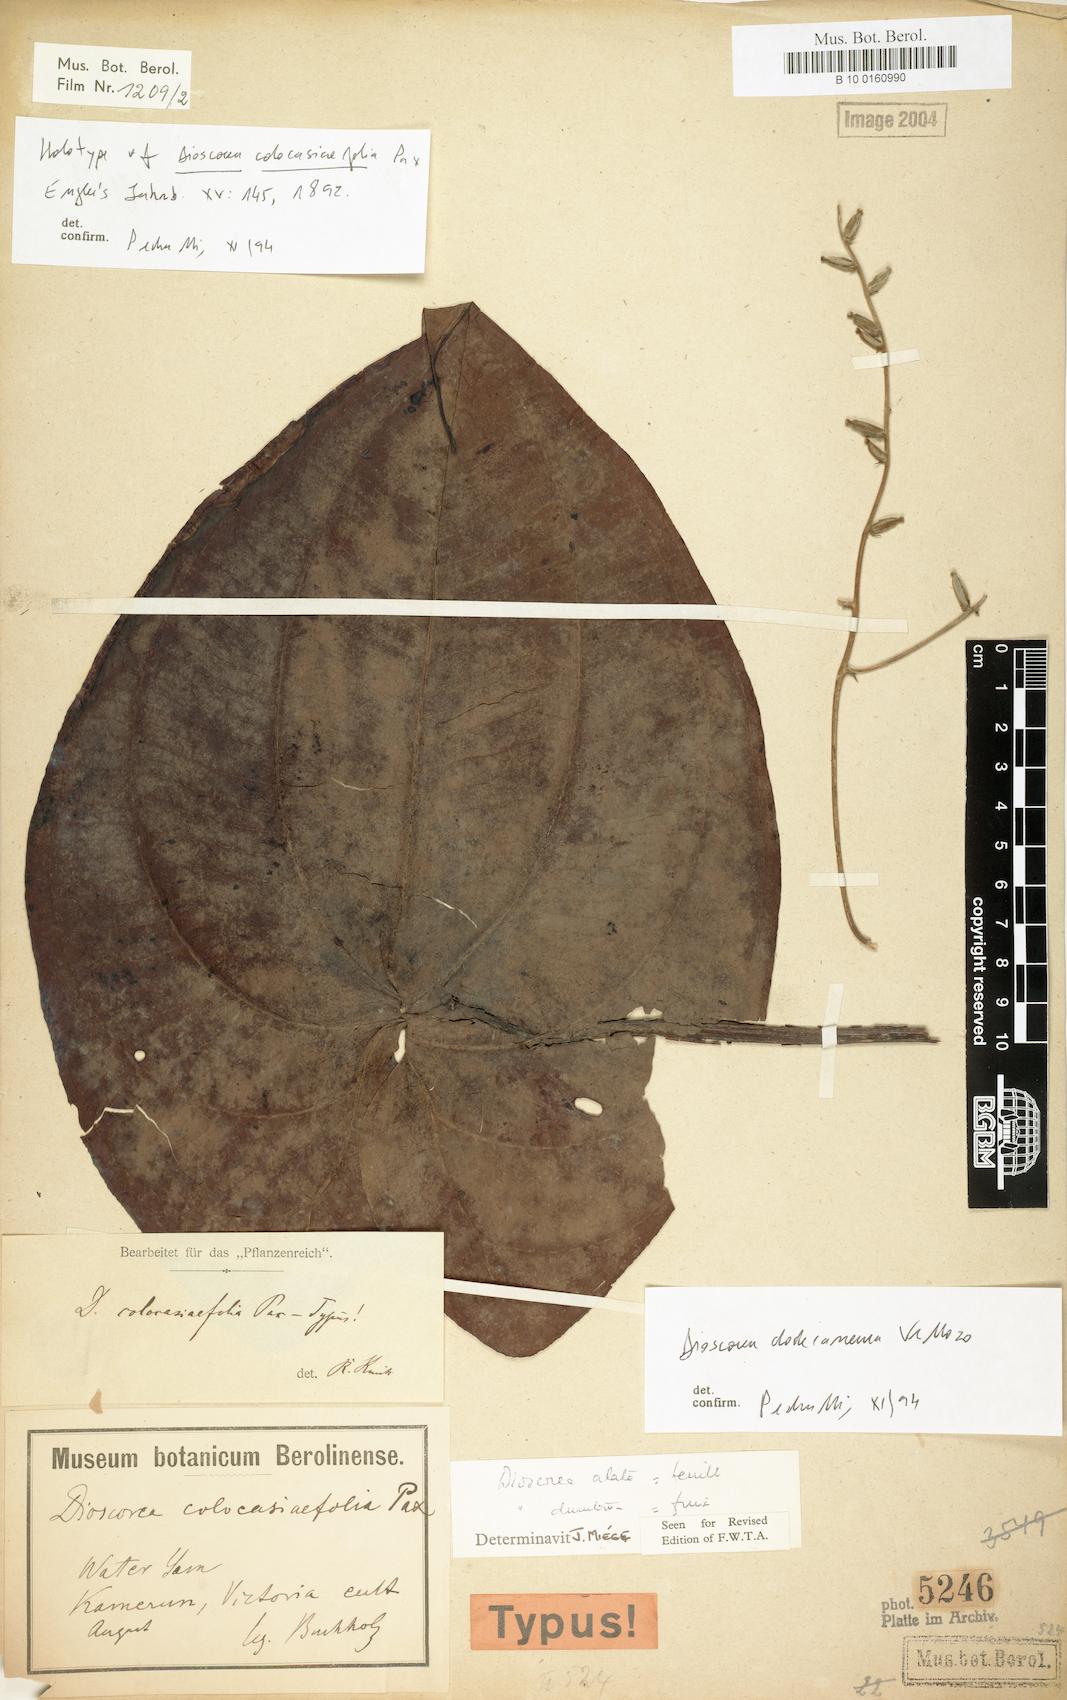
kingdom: Plantae
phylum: Tracheophyta
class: Liliopsida
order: Dioscoreales
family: Dioscoreaceae
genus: Dioscorea
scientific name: Dioscorea dodecaneura
